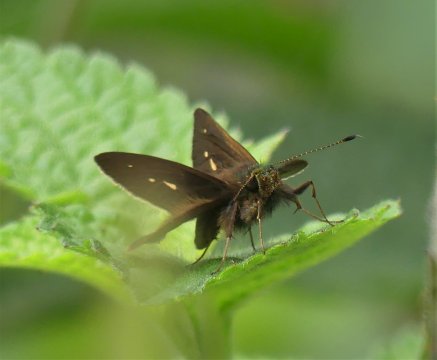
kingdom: Animalia
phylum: Arthropoda
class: Insecta
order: Lepidoptera
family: Hesperiidae
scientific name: Hesperiidae
